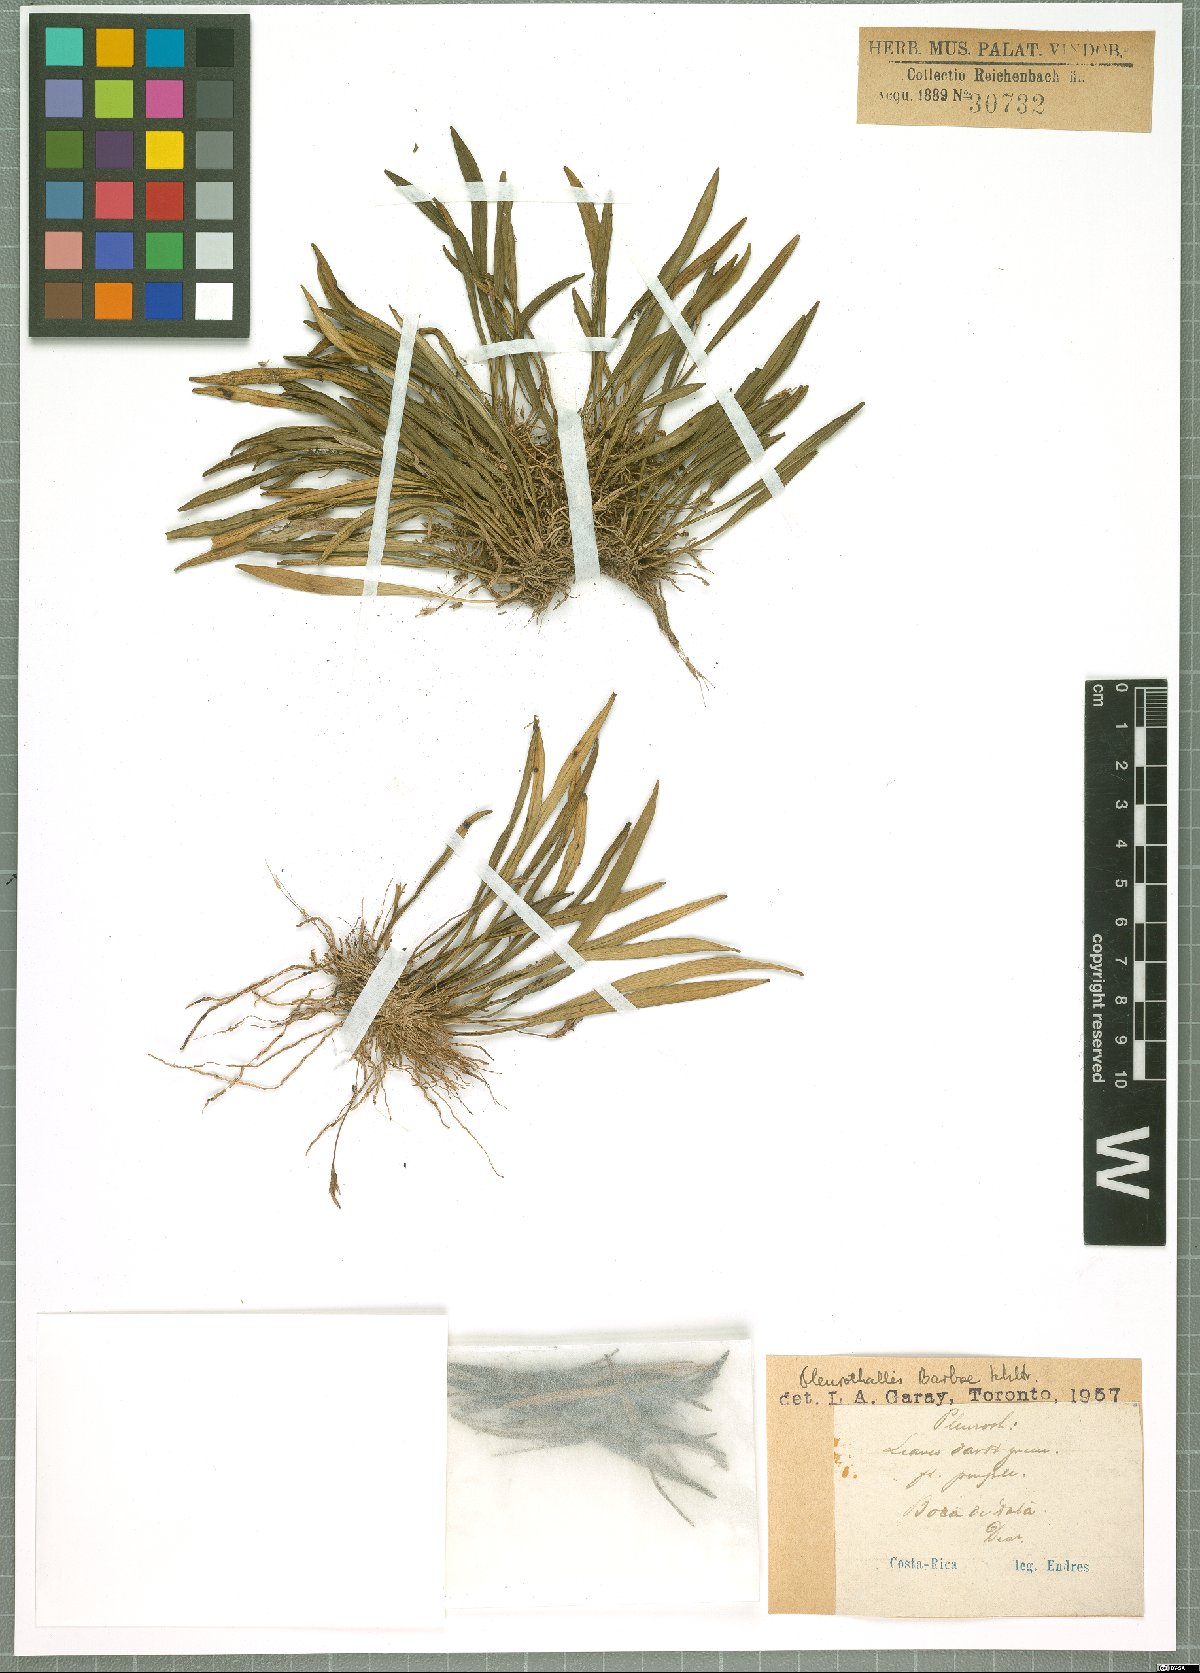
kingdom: Plantae
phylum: Tracheophyta
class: Liliopsida
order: Asparagales
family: Orchidaceae
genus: Specklinia
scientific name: Specklinia acrisepala
